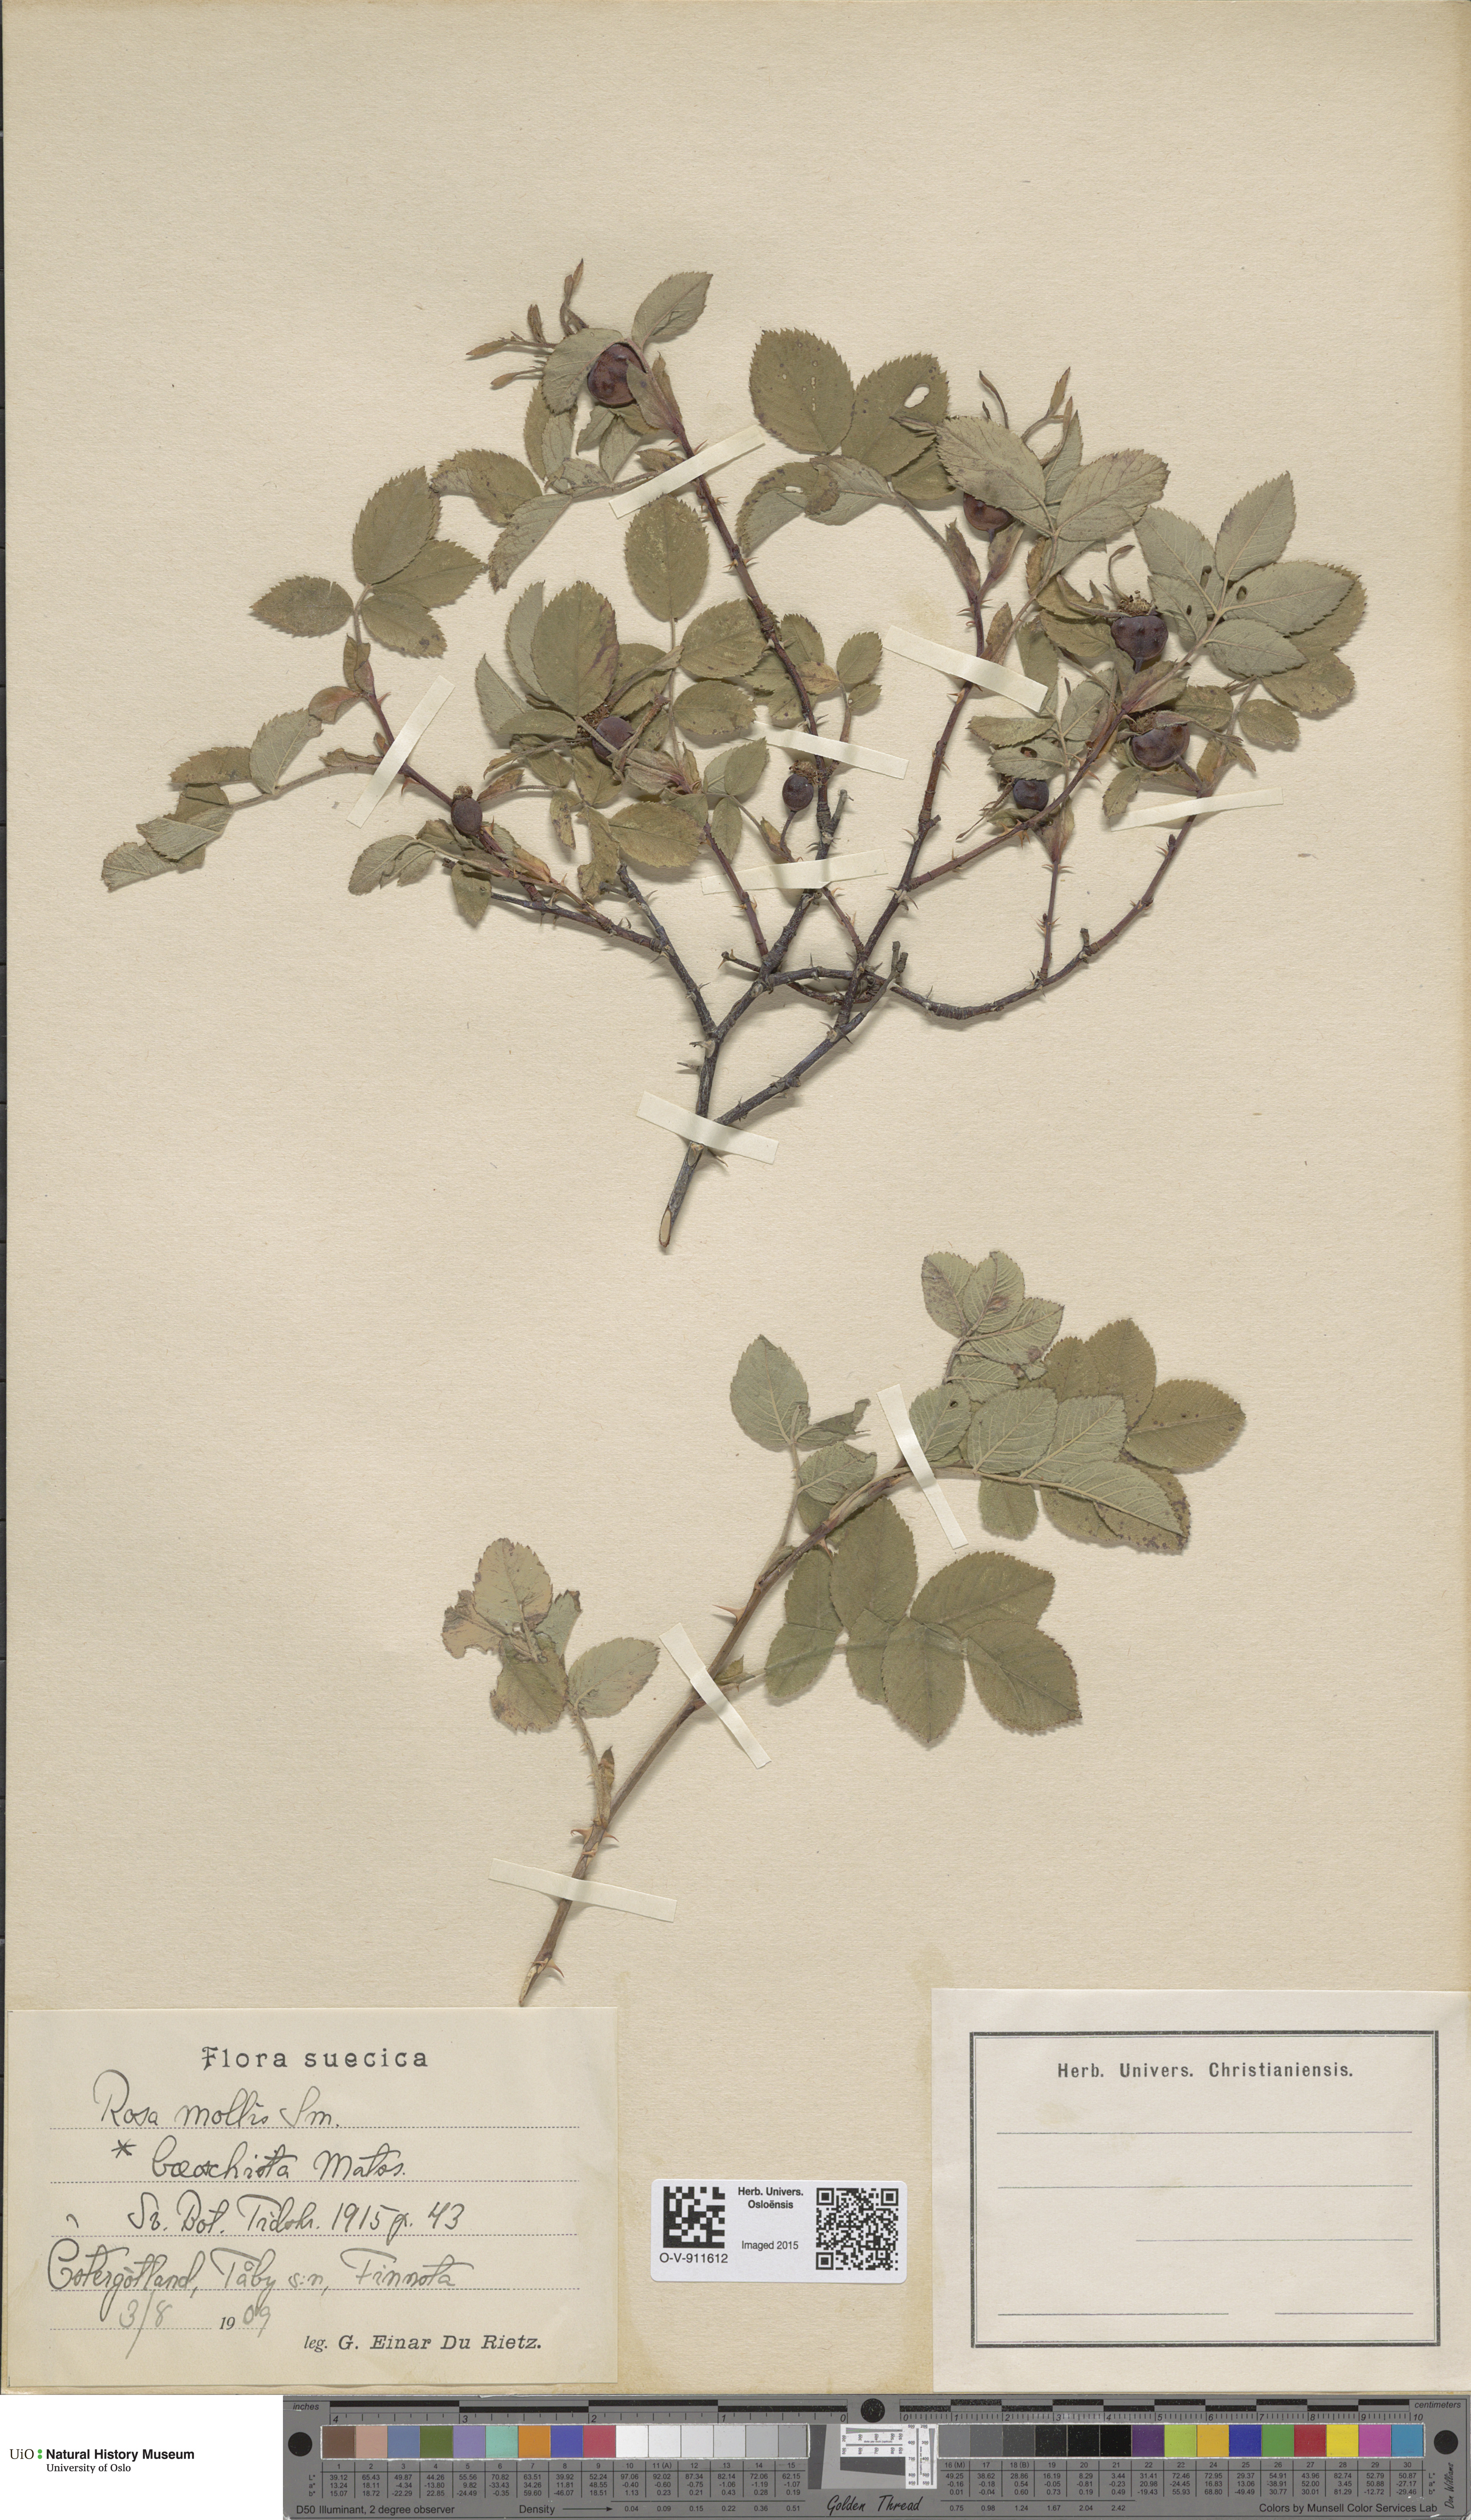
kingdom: Plantae
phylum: Tracheophyta
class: Magnoliopsida
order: Rosales
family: Rosaceae
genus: Rosa
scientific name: Rosa mollis
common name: Rose
